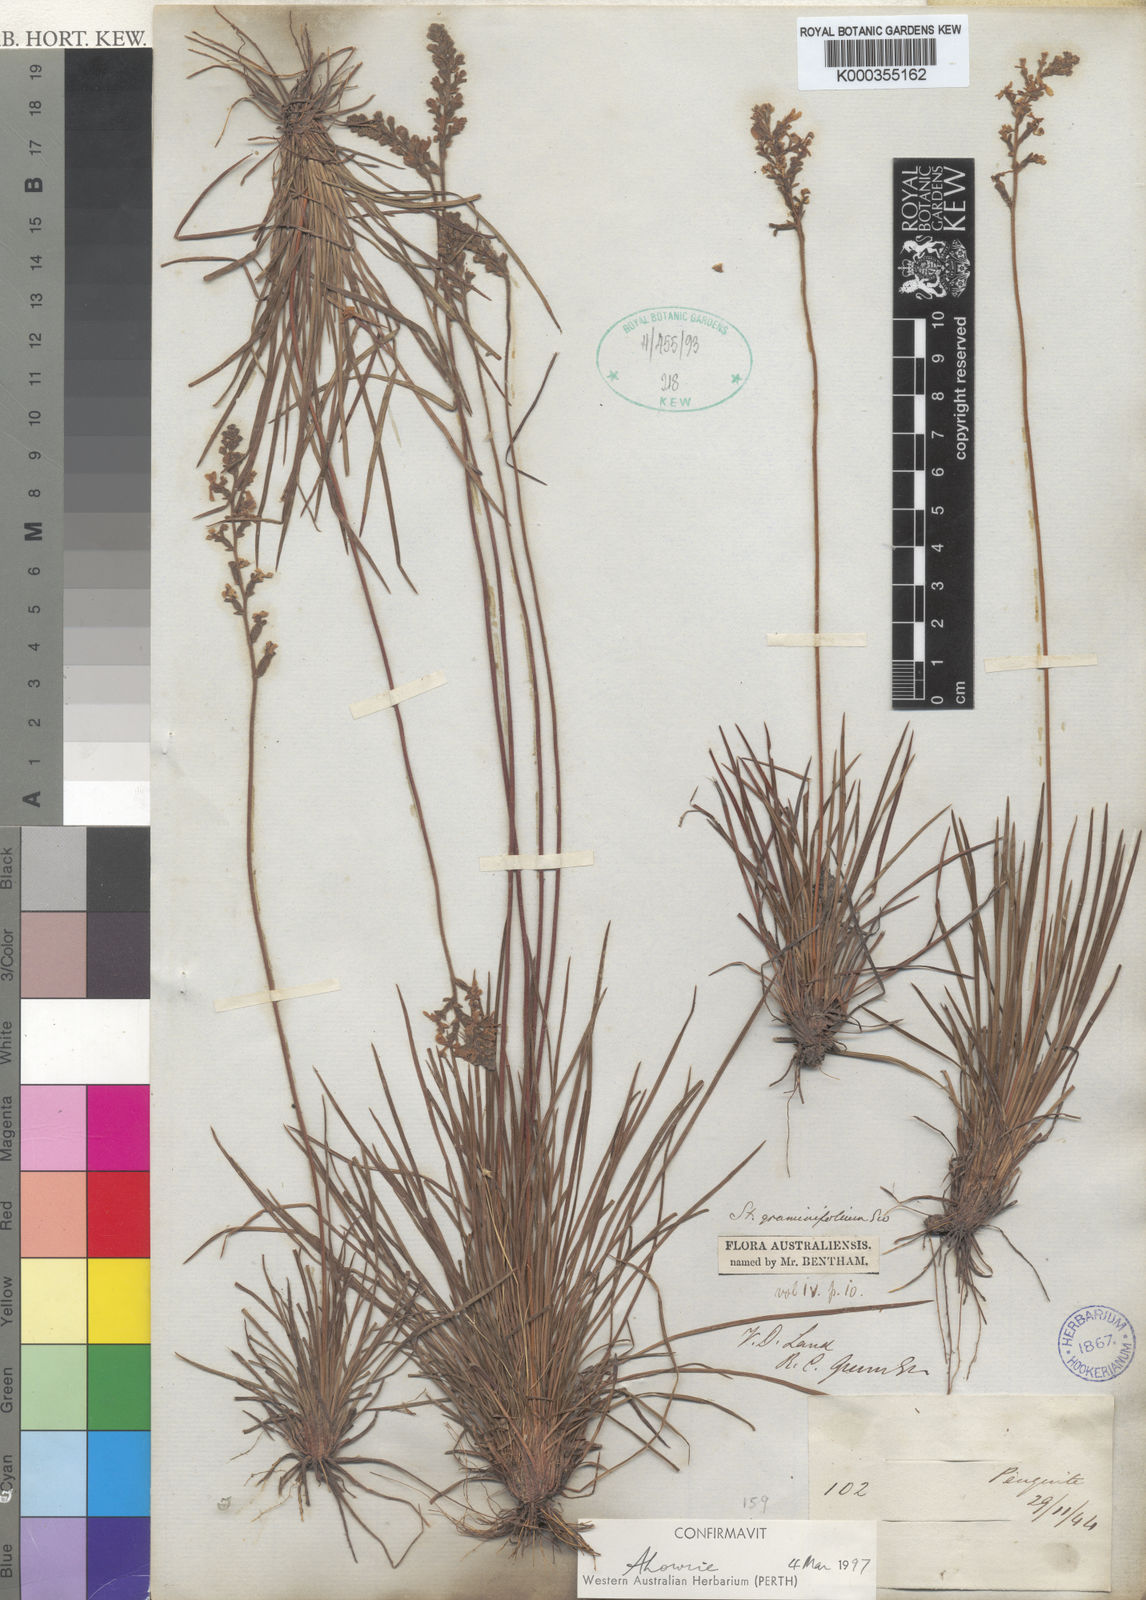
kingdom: Plantae
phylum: Tracheophyta
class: Magnoliopsida
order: Asterales
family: Stylidiaceae
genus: Stylidium
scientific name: Stylidium graminifolium
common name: Grass triggerplant
